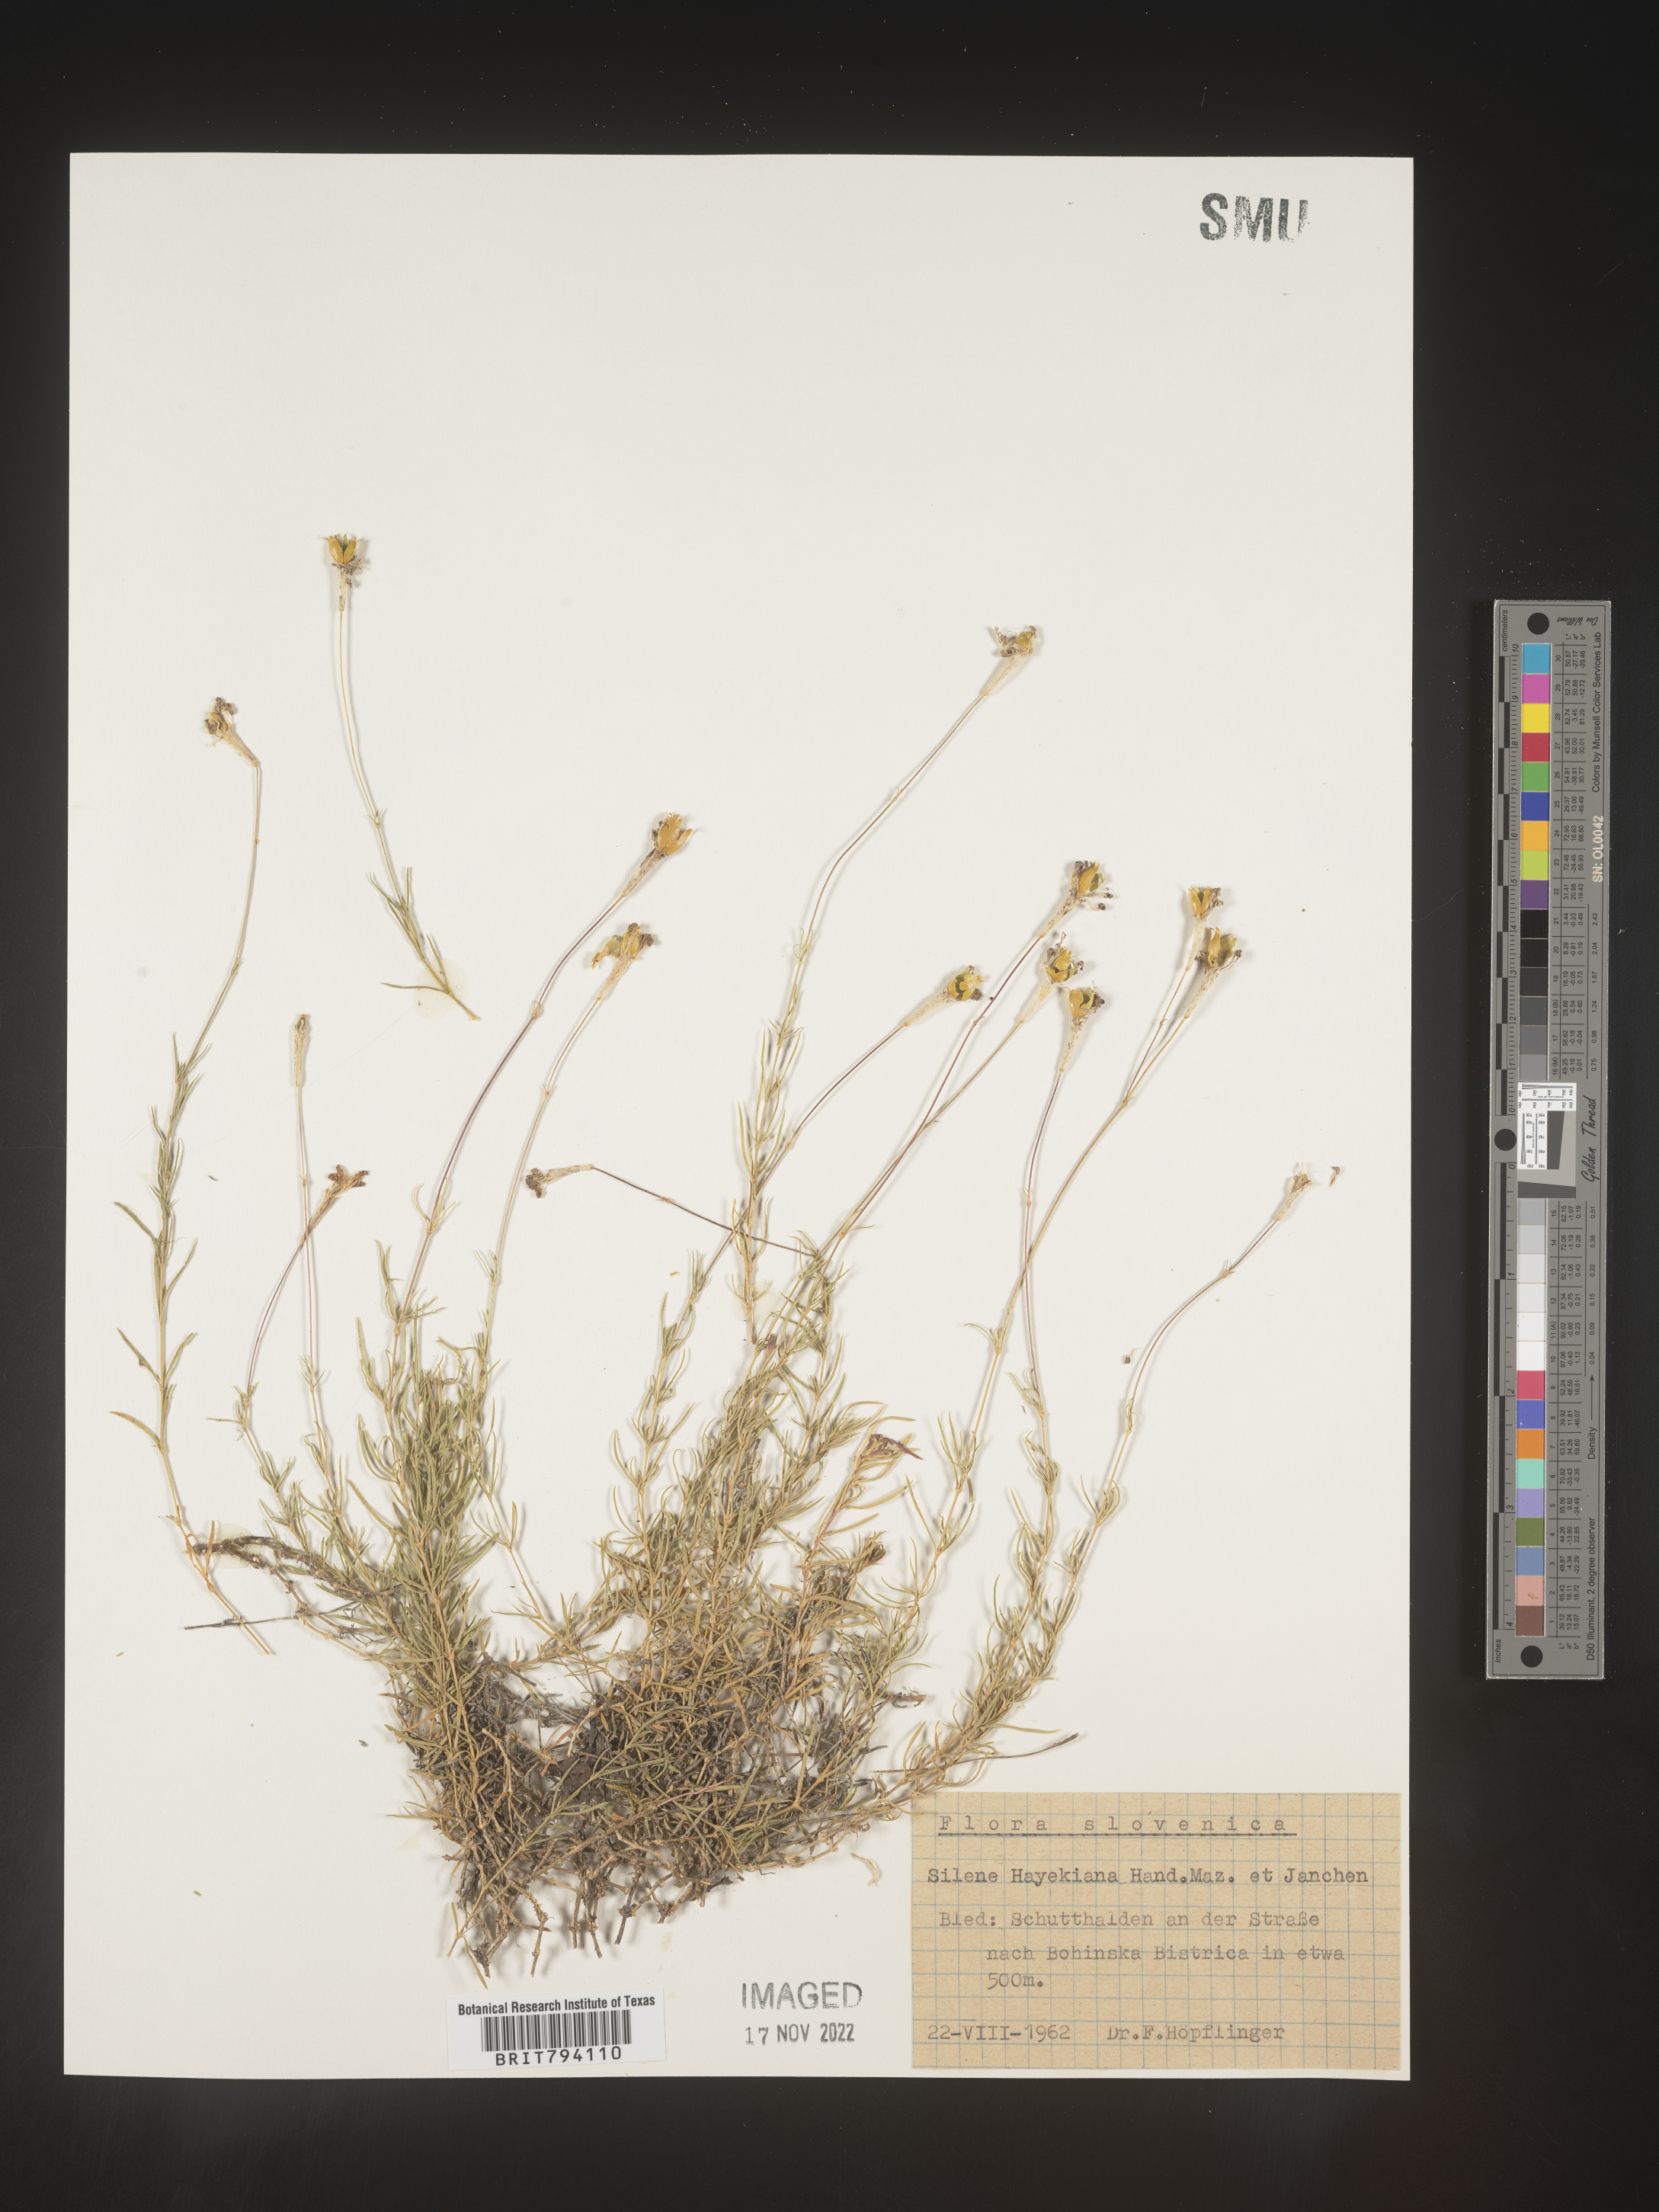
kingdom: Plantae
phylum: Tracheophyta
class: Magnoliopsida
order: Caryophyllales
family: Caryophyllaceae
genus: Silene
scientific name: Silene hayekiana
